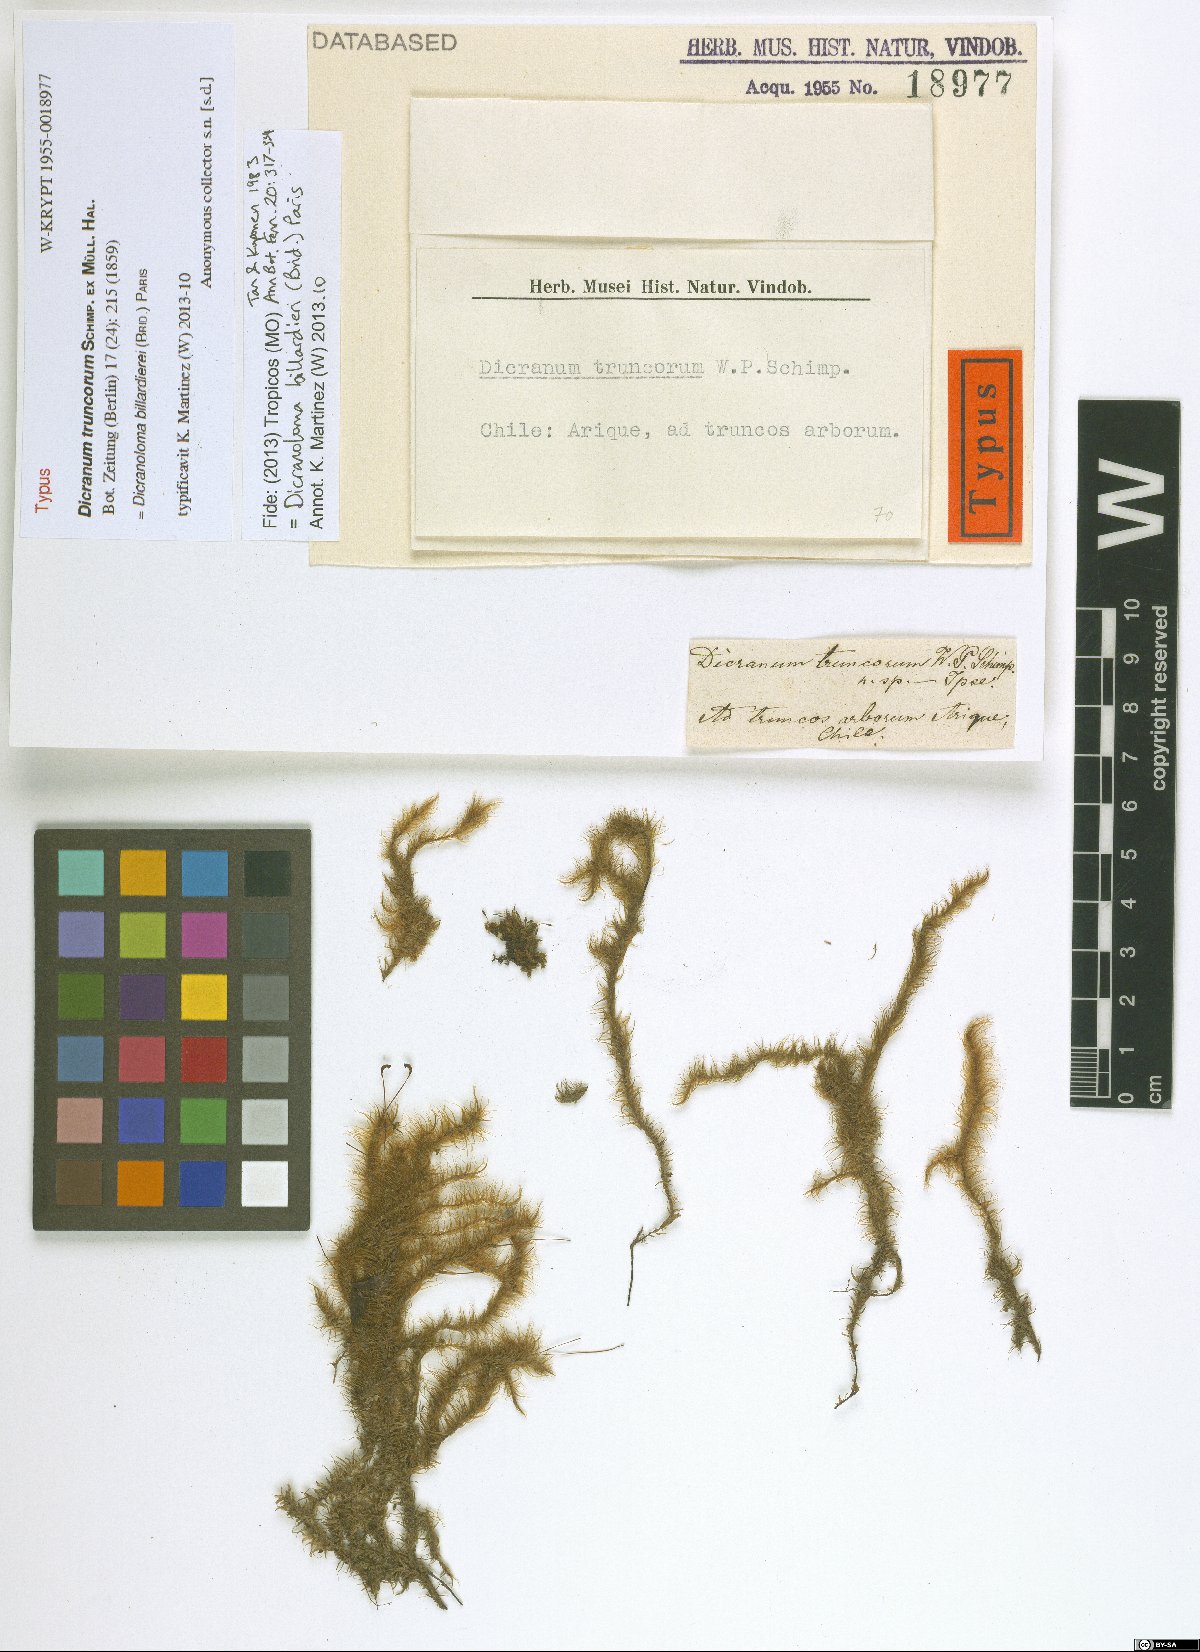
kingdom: Plantae
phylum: Bryophyta
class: Bryopsida
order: Dicranales
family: Dicranaceae
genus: Dicranoloma
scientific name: Dicranoloma billarderii
